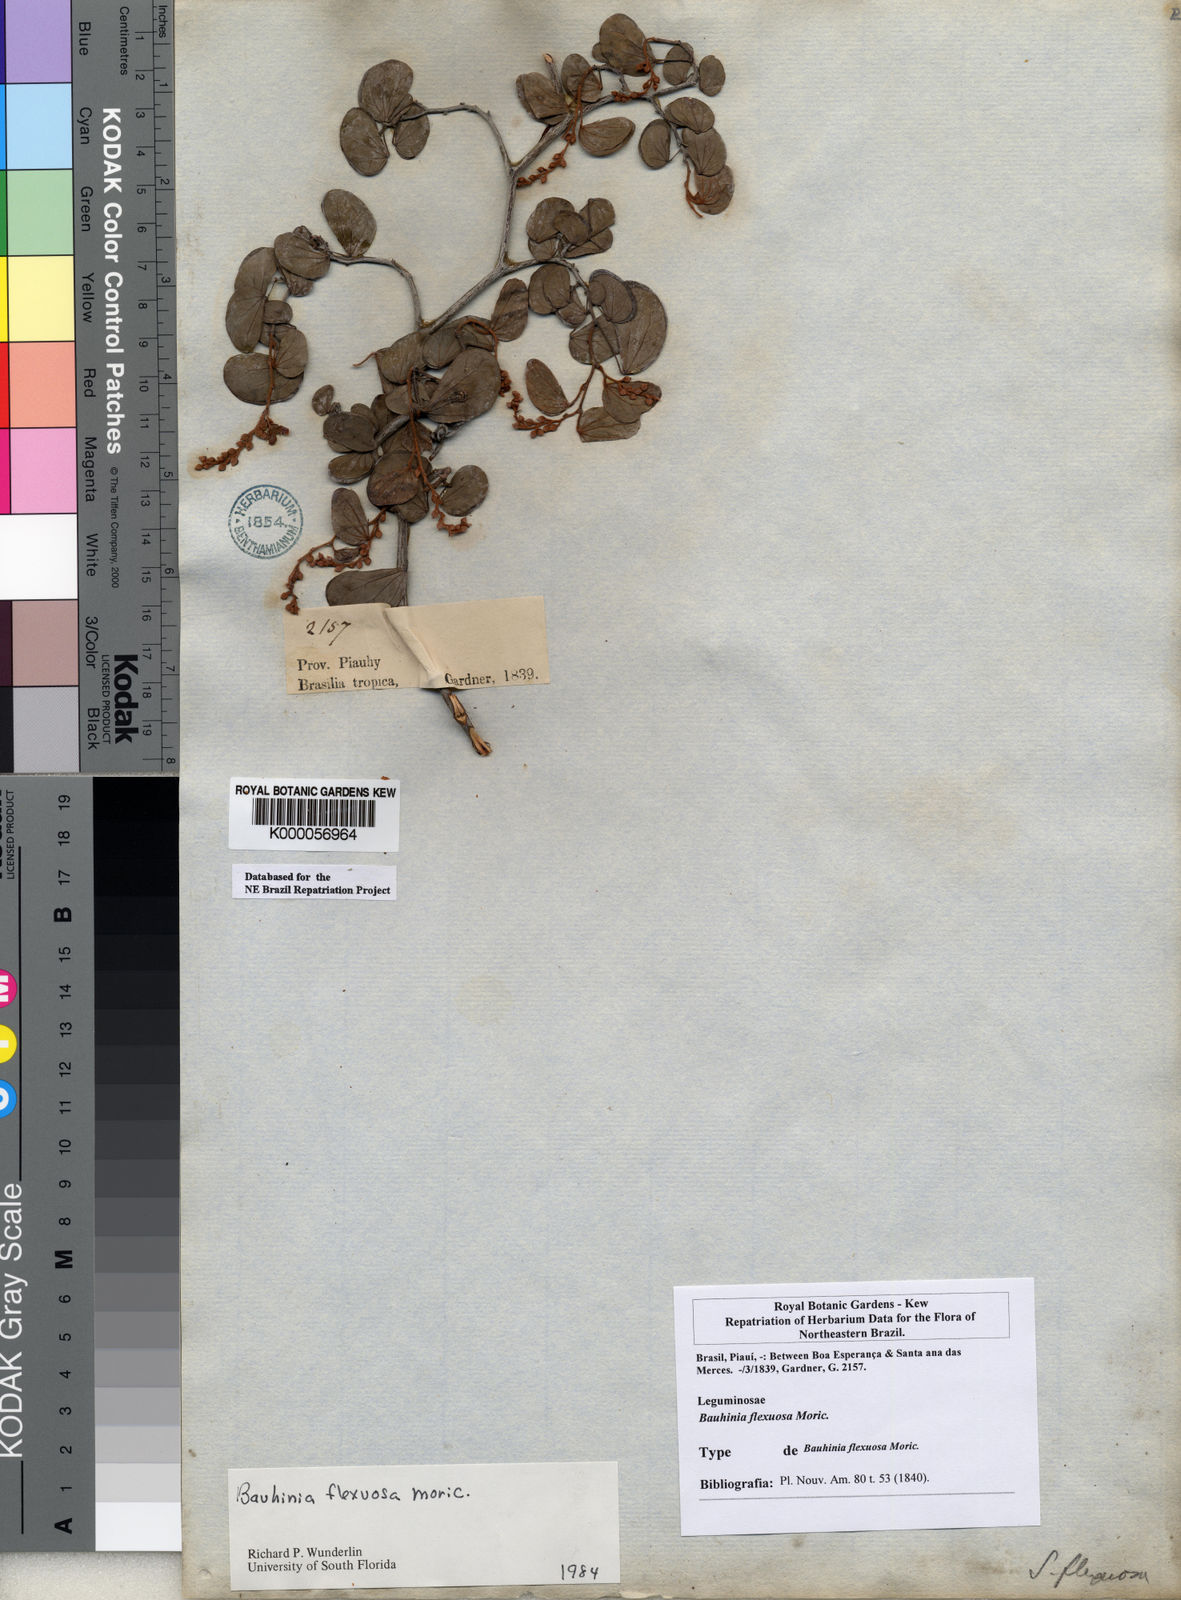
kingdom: Plantae
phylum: Tracheophyta
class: Magnoliopsida
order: Fabales
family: Fabaceae
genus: Schnella
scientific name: Schnella flexuosa
